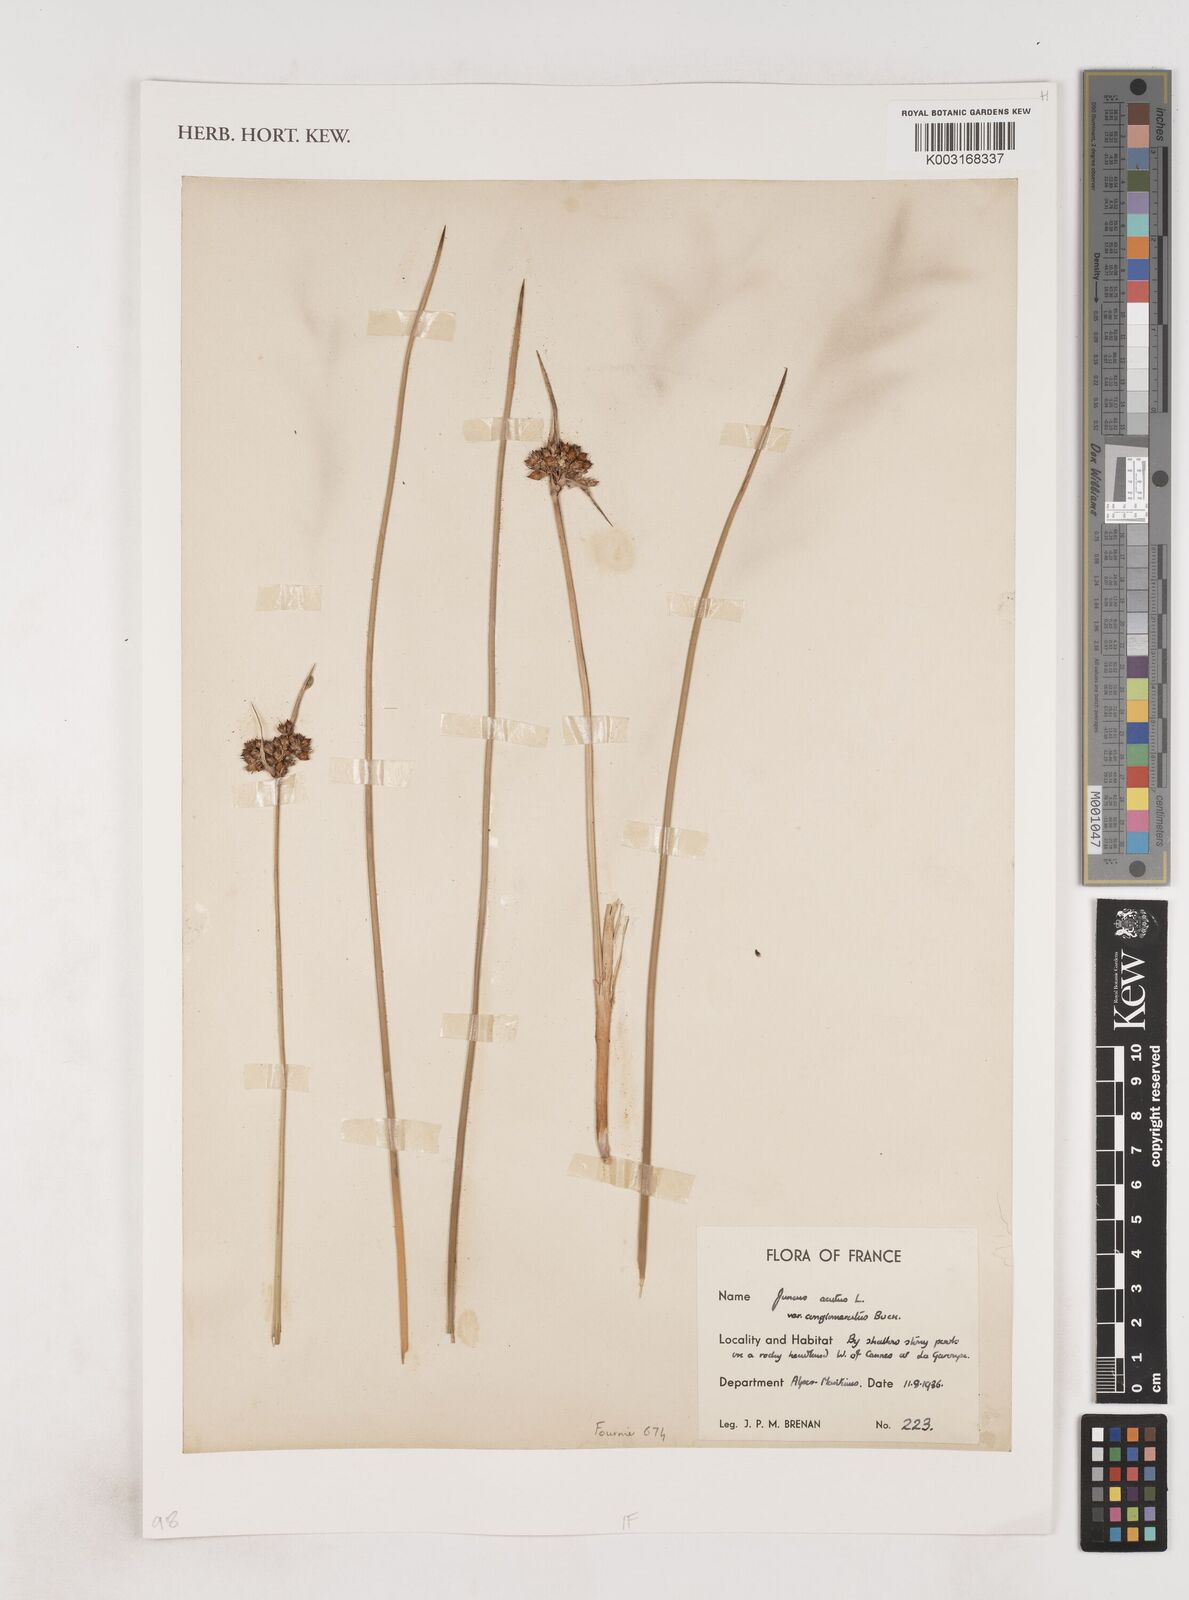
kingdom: Plantae
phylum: Tracheophyta
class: Liliopsida
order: Poales
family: Juncaceae
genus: Juncus
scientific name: Juncus acutus
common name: Sharp rush
